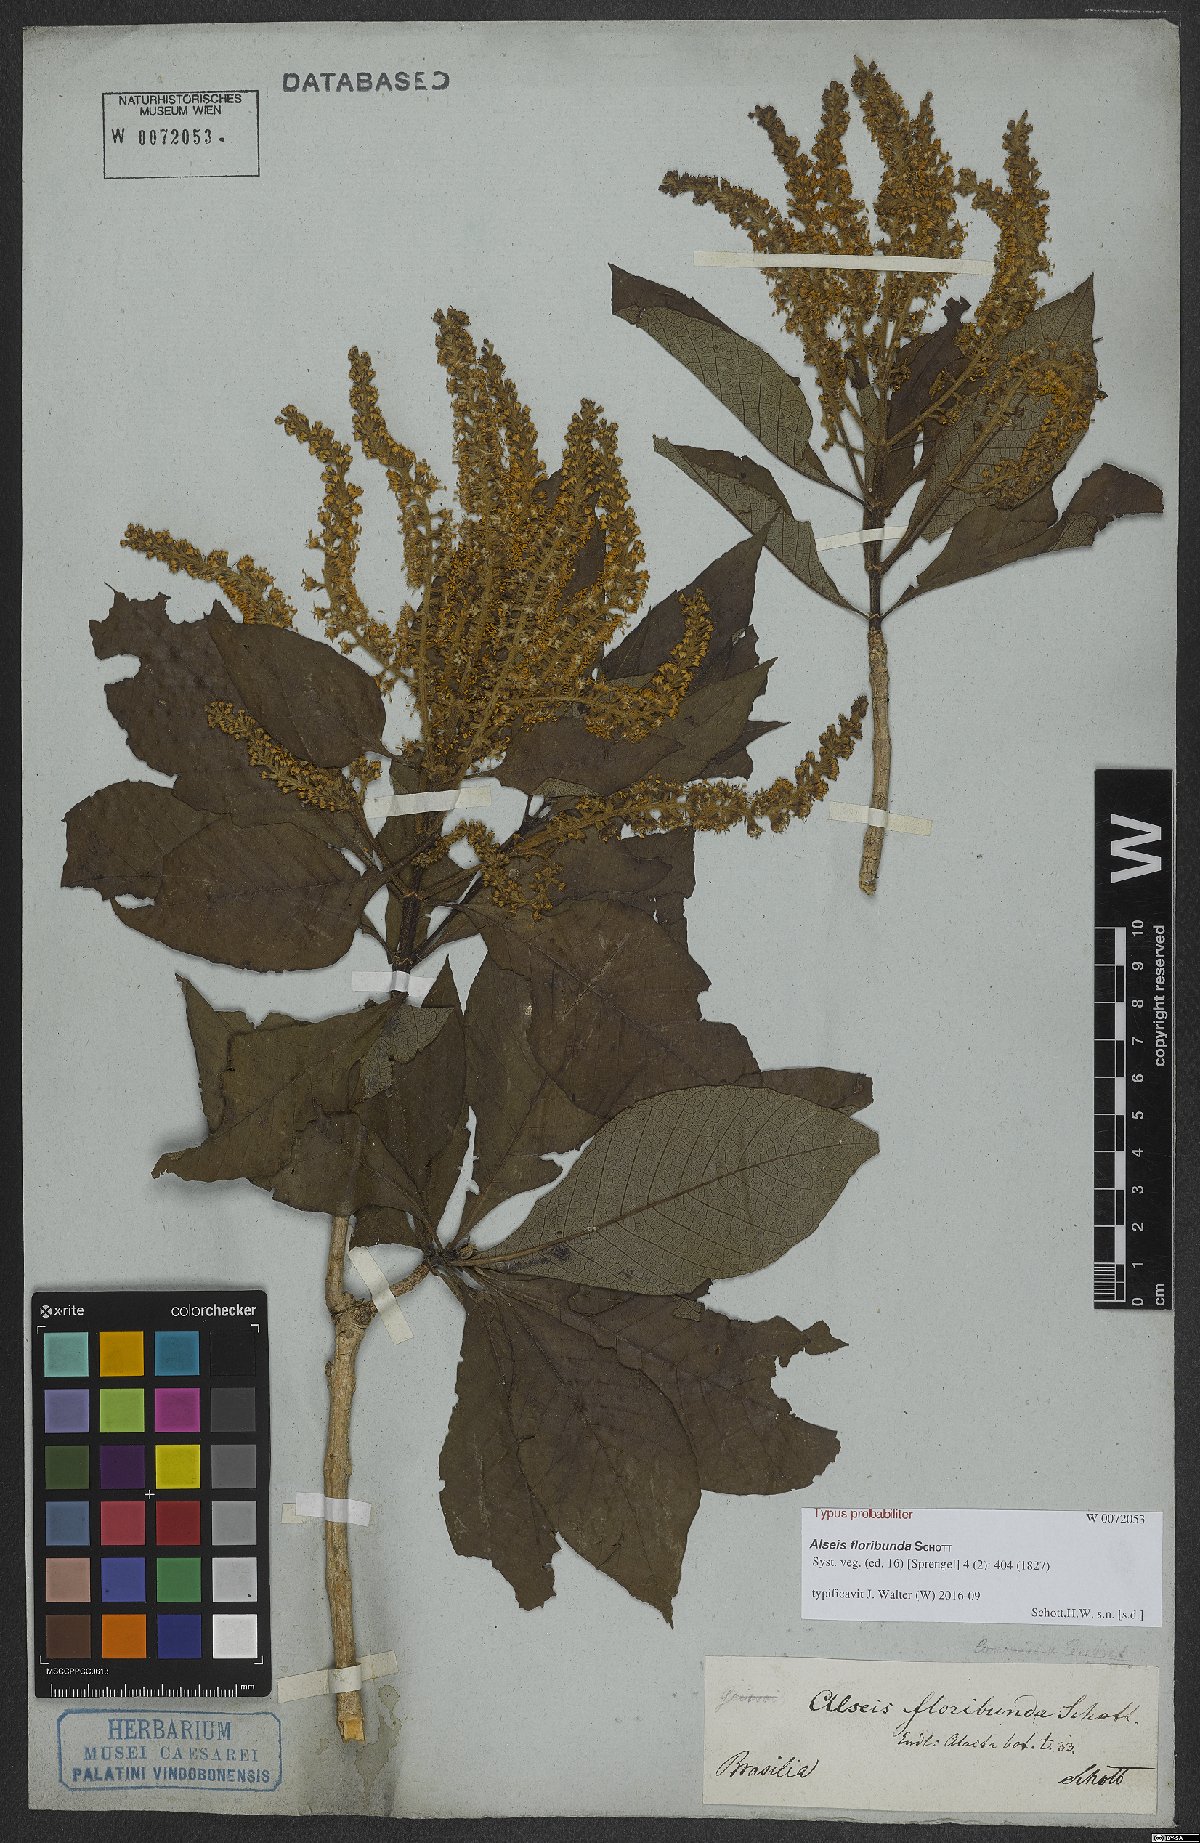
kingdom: Plantae
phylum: Tracheophyta
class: Magnoliopsida
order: Gentianales
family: Rubiaceae
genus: Alseis
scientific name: Alseis floribunda
